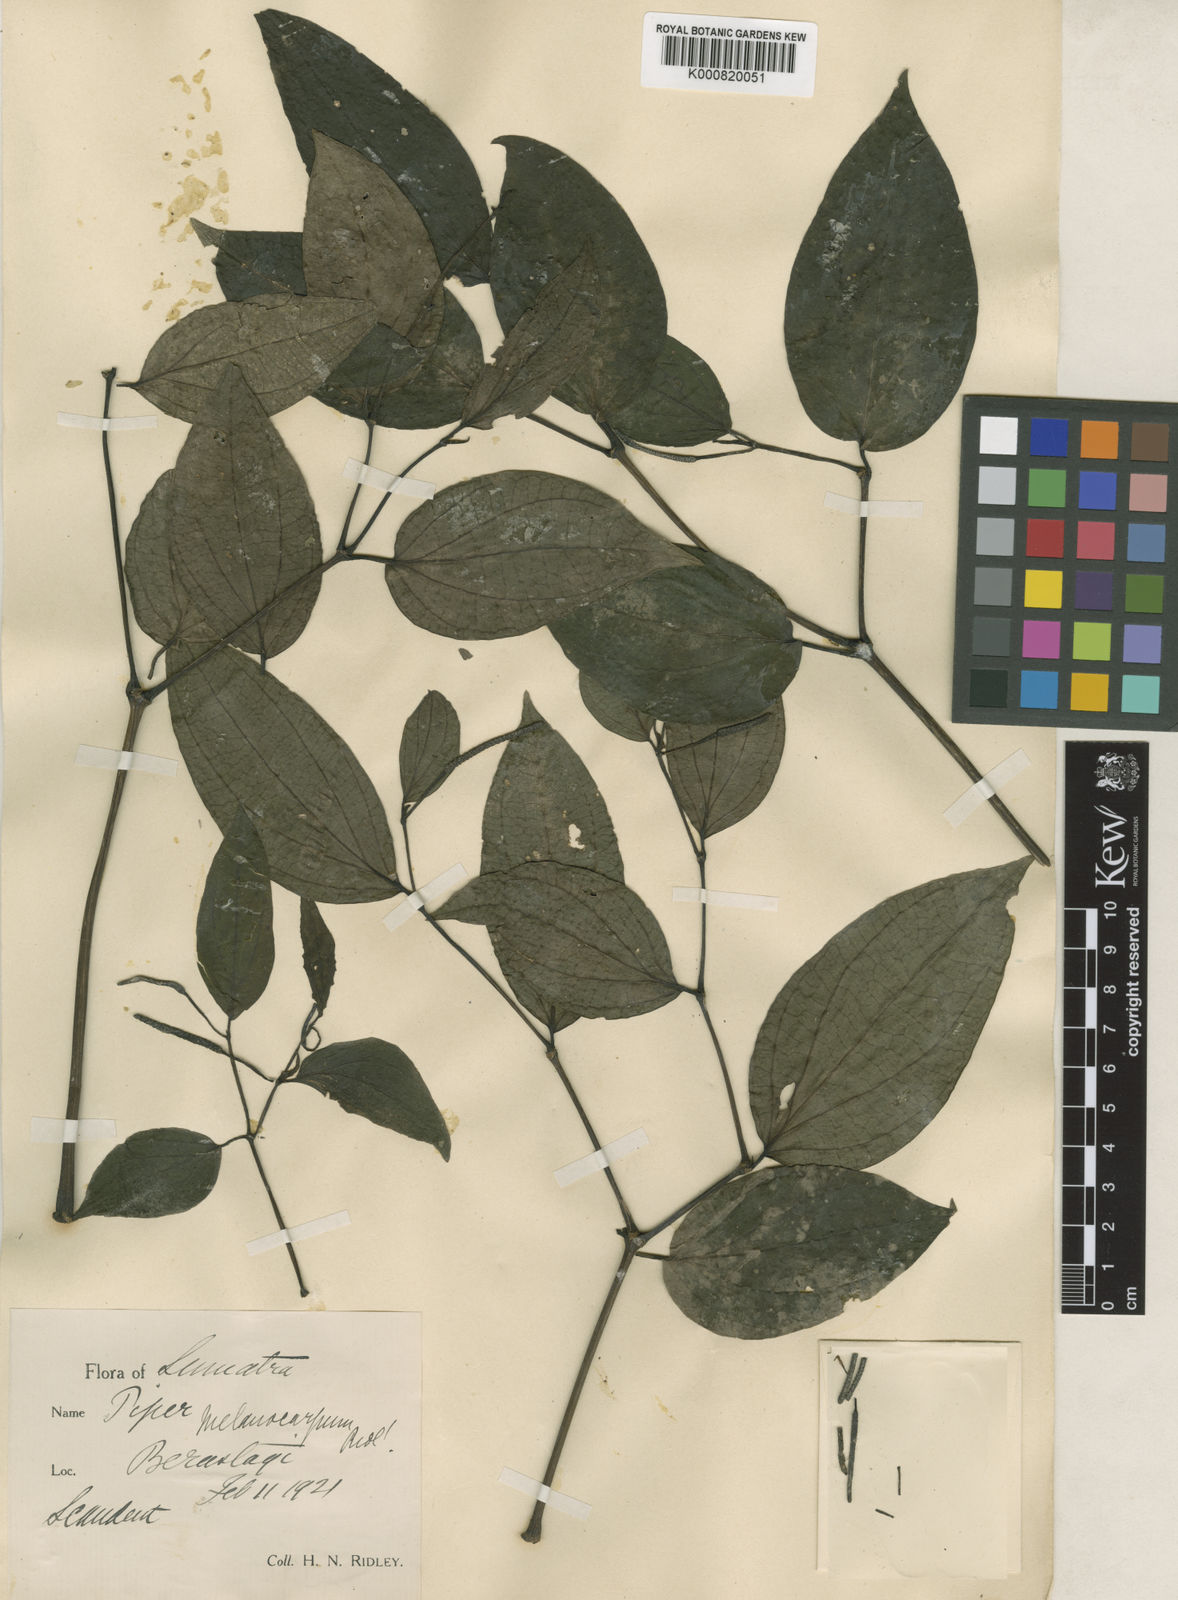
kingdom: Plantae
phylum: Tracheophyta
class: Magnoliopsida
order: Piperales
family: Piperaceae
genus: Piper
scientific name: Piper sulcatum
